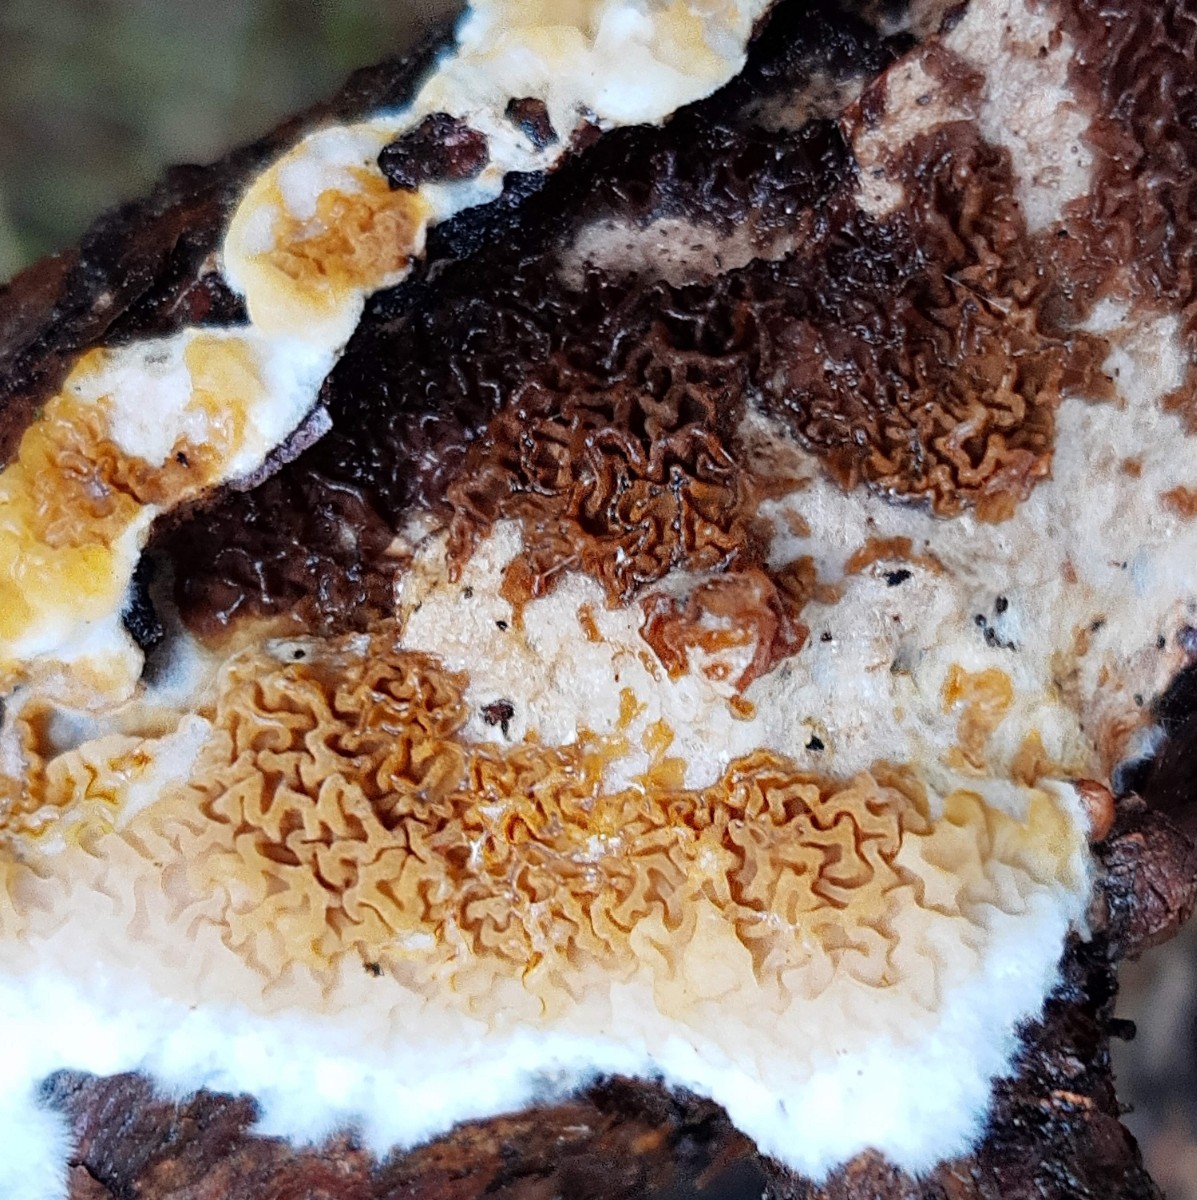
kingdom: Fungi
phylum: Basidiomycota
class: Agaricomycetes
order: Boletales
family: Serpulaceae
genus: Serpula
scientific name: Serpula himantioides
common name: tyndkødet hussvamp
